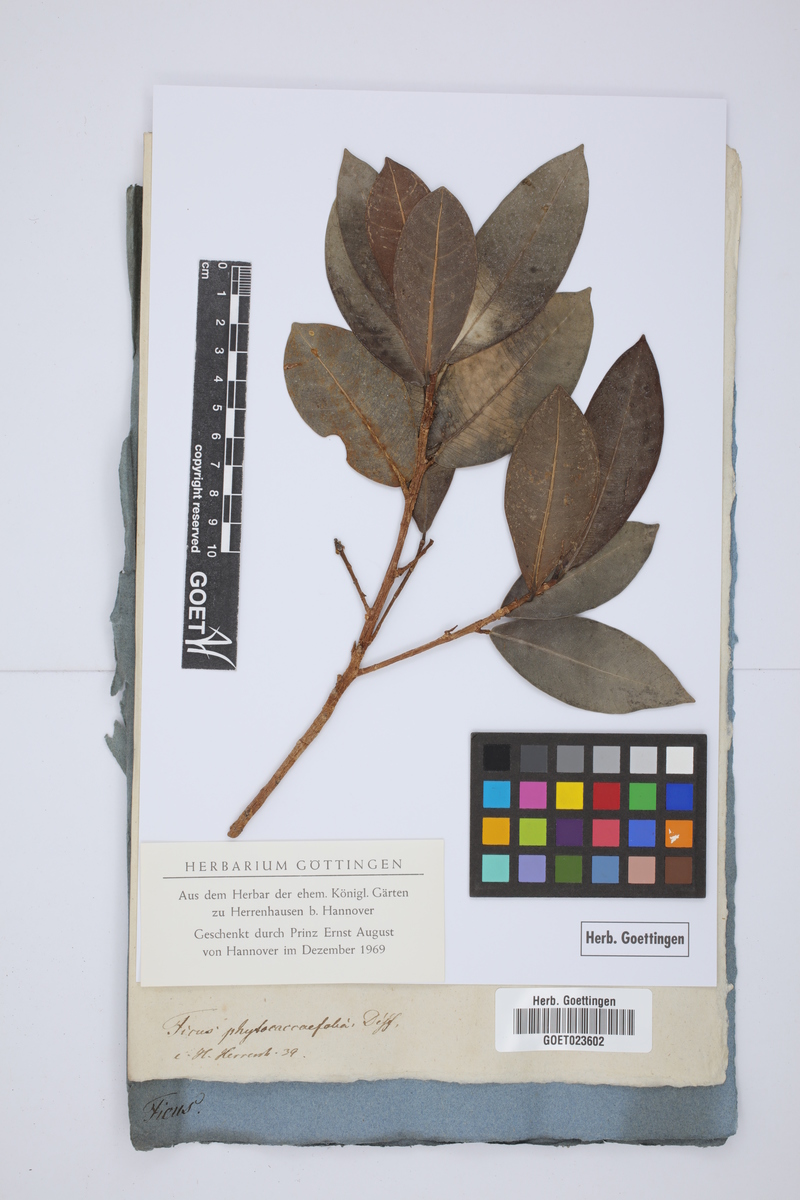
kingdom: Plantae
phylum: Tracheophyta
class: Magnoliopsida
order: Rosales
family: Moraceae
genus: Ficus
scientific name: Ficus phytolaccifolia
